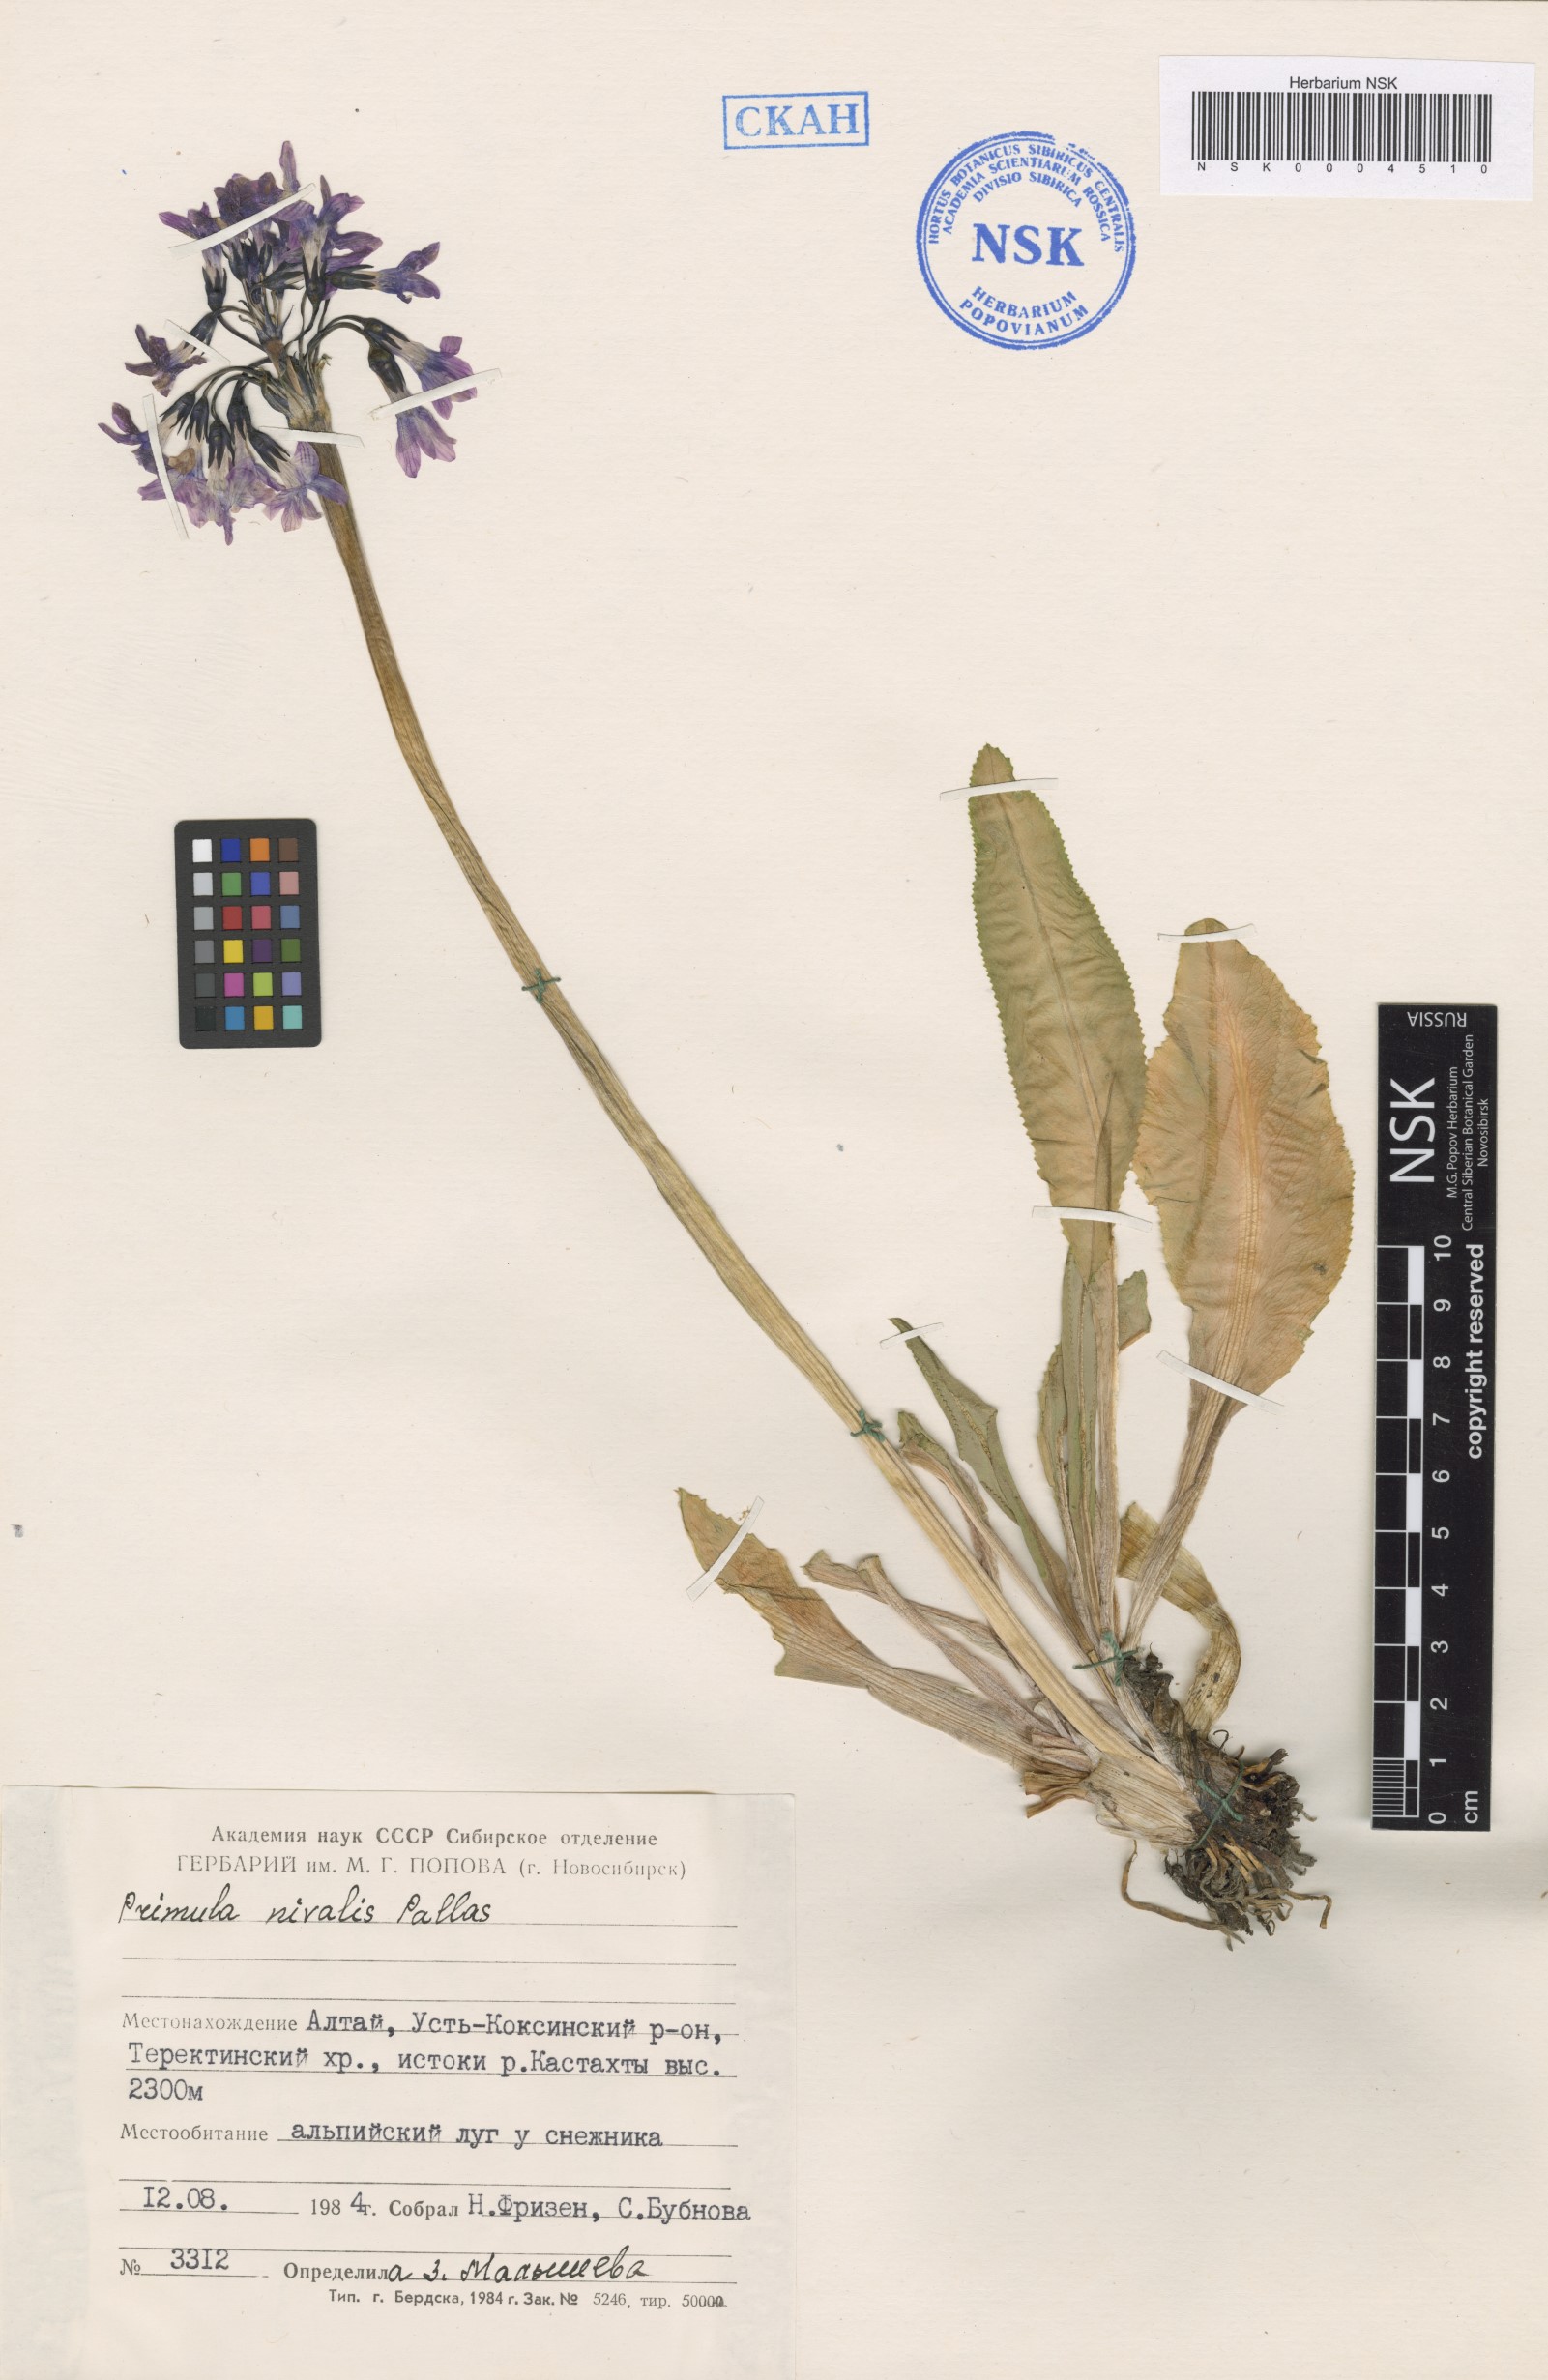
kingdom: Plantae
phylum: Tracheophyta
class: Magnoliopsida
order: Ericales
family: Primulaceae
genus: Primula
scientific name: Primula nivalis
